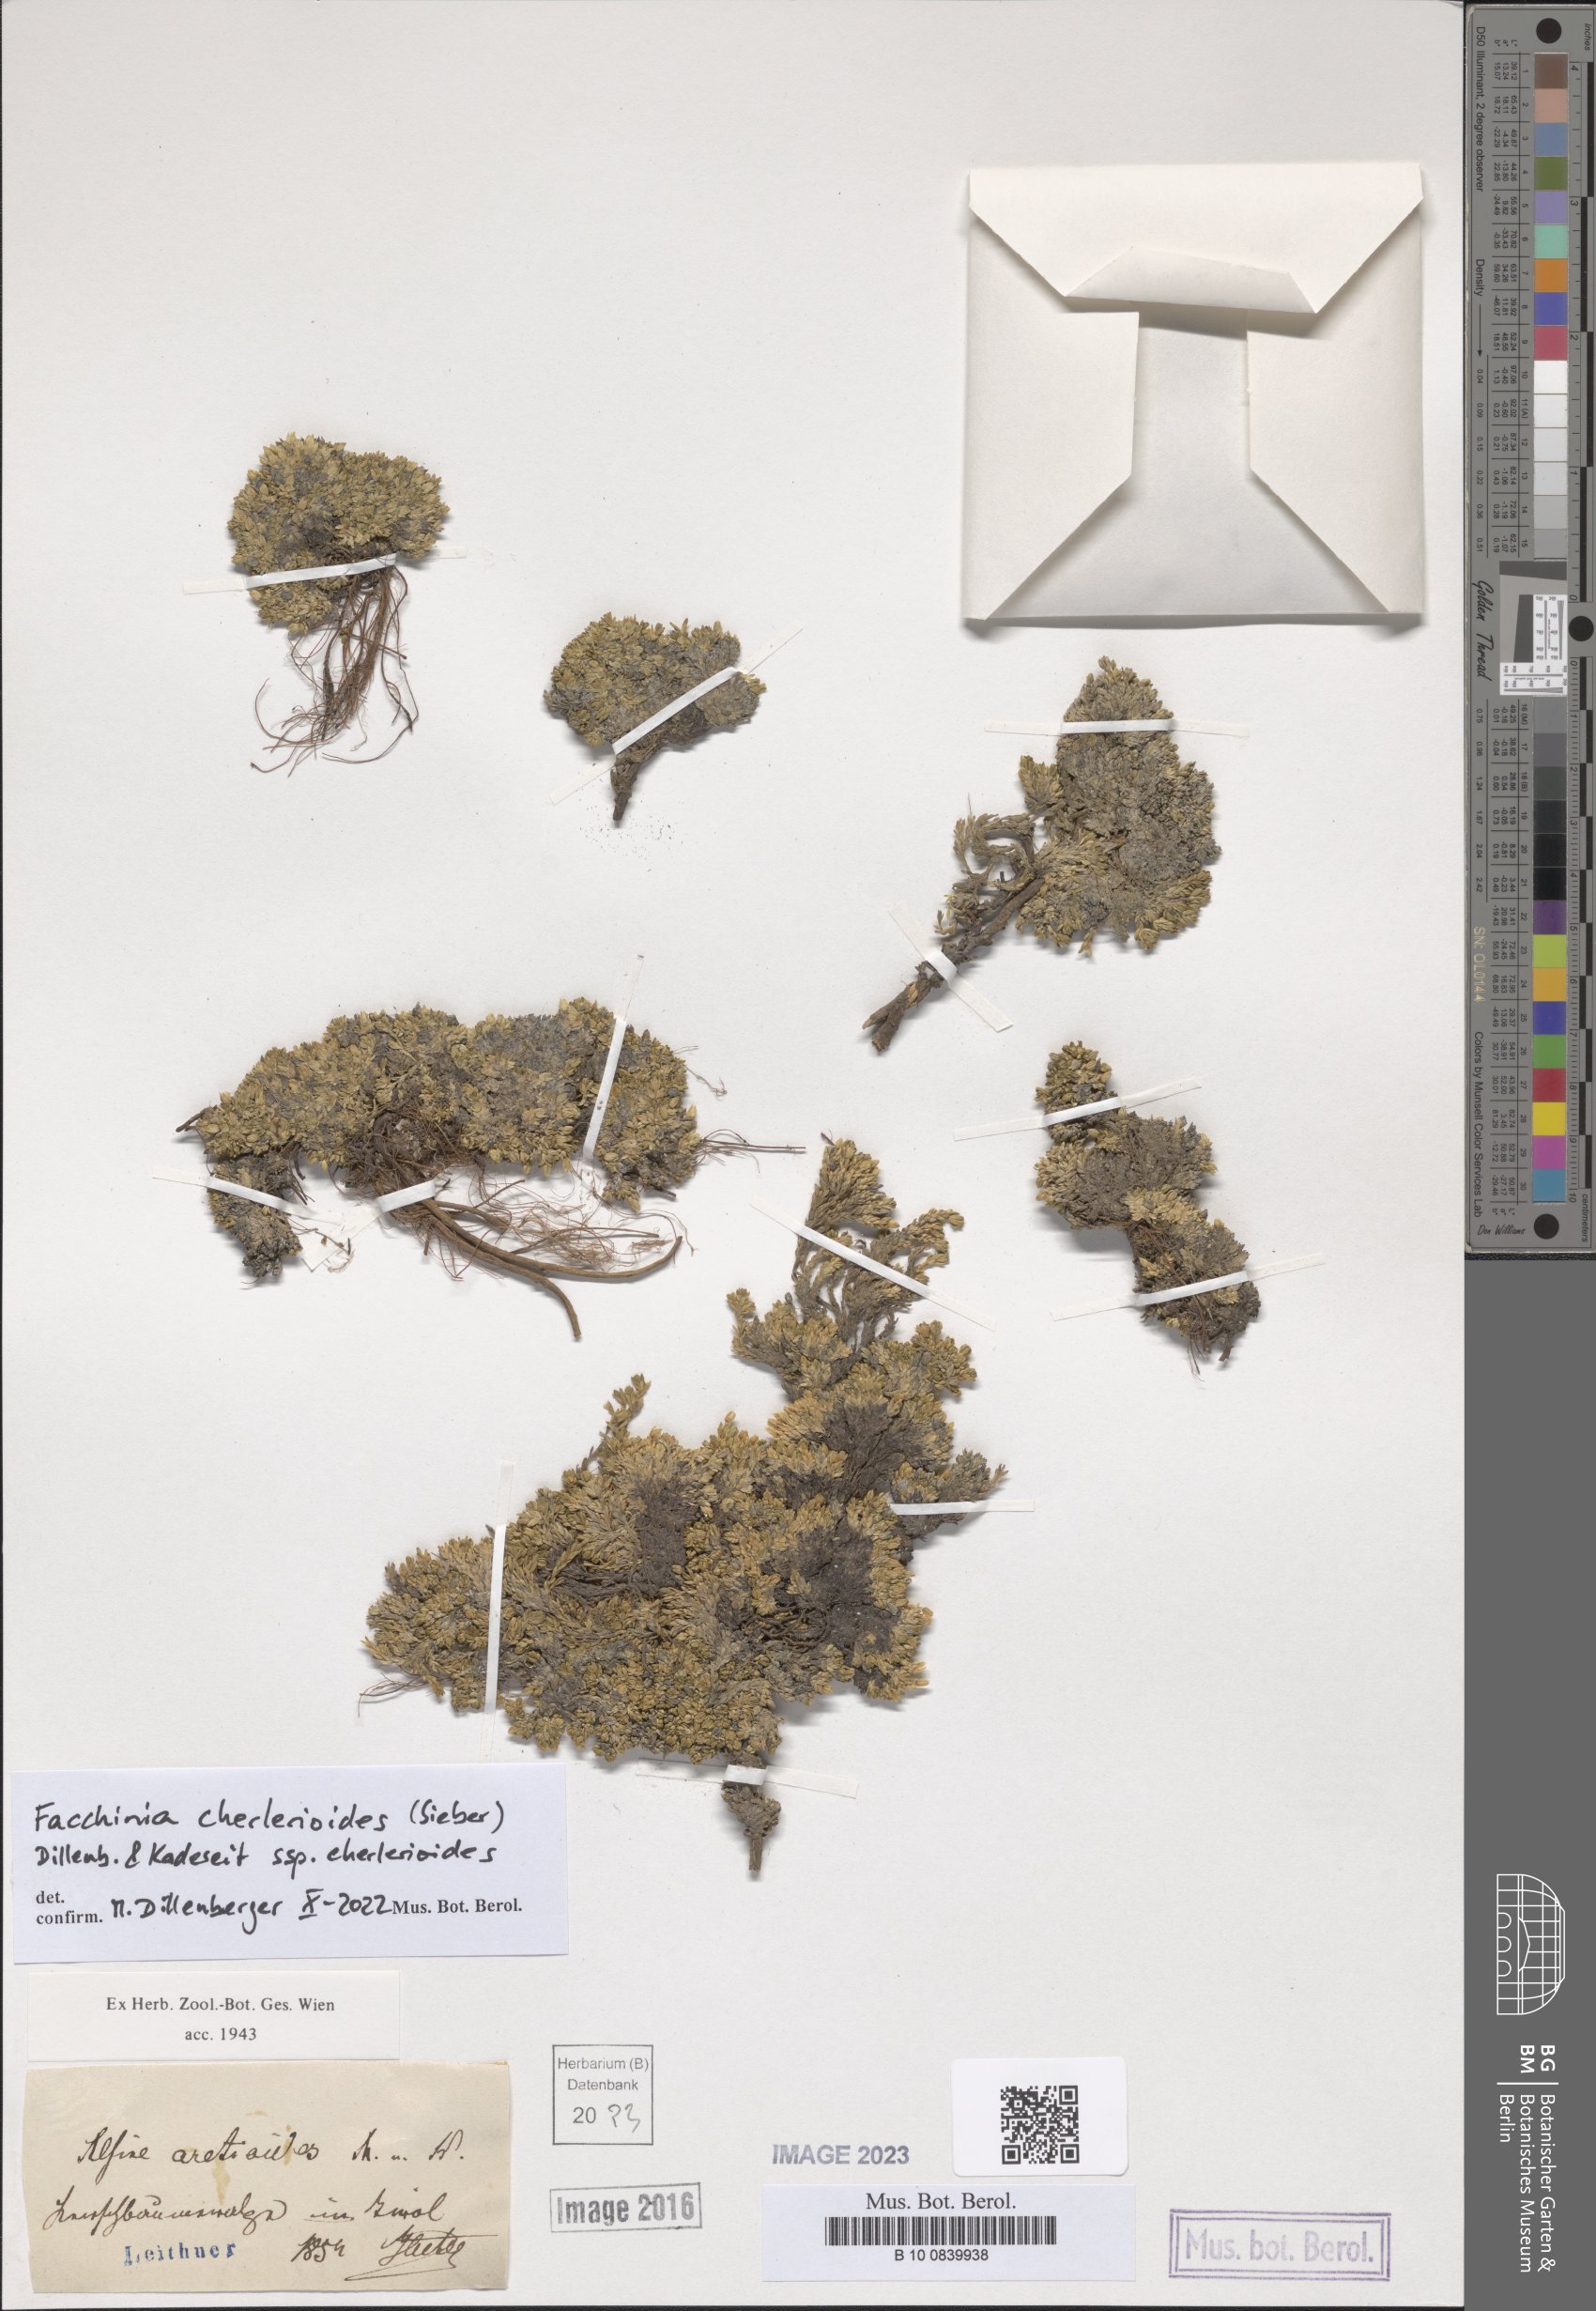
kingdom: Plantae
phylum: Tracheophyta
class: Magnoliopsida
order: Caryophyllales
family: Caryophyllaceae
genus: Facchinia
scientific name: Facchinia cherlerioides
